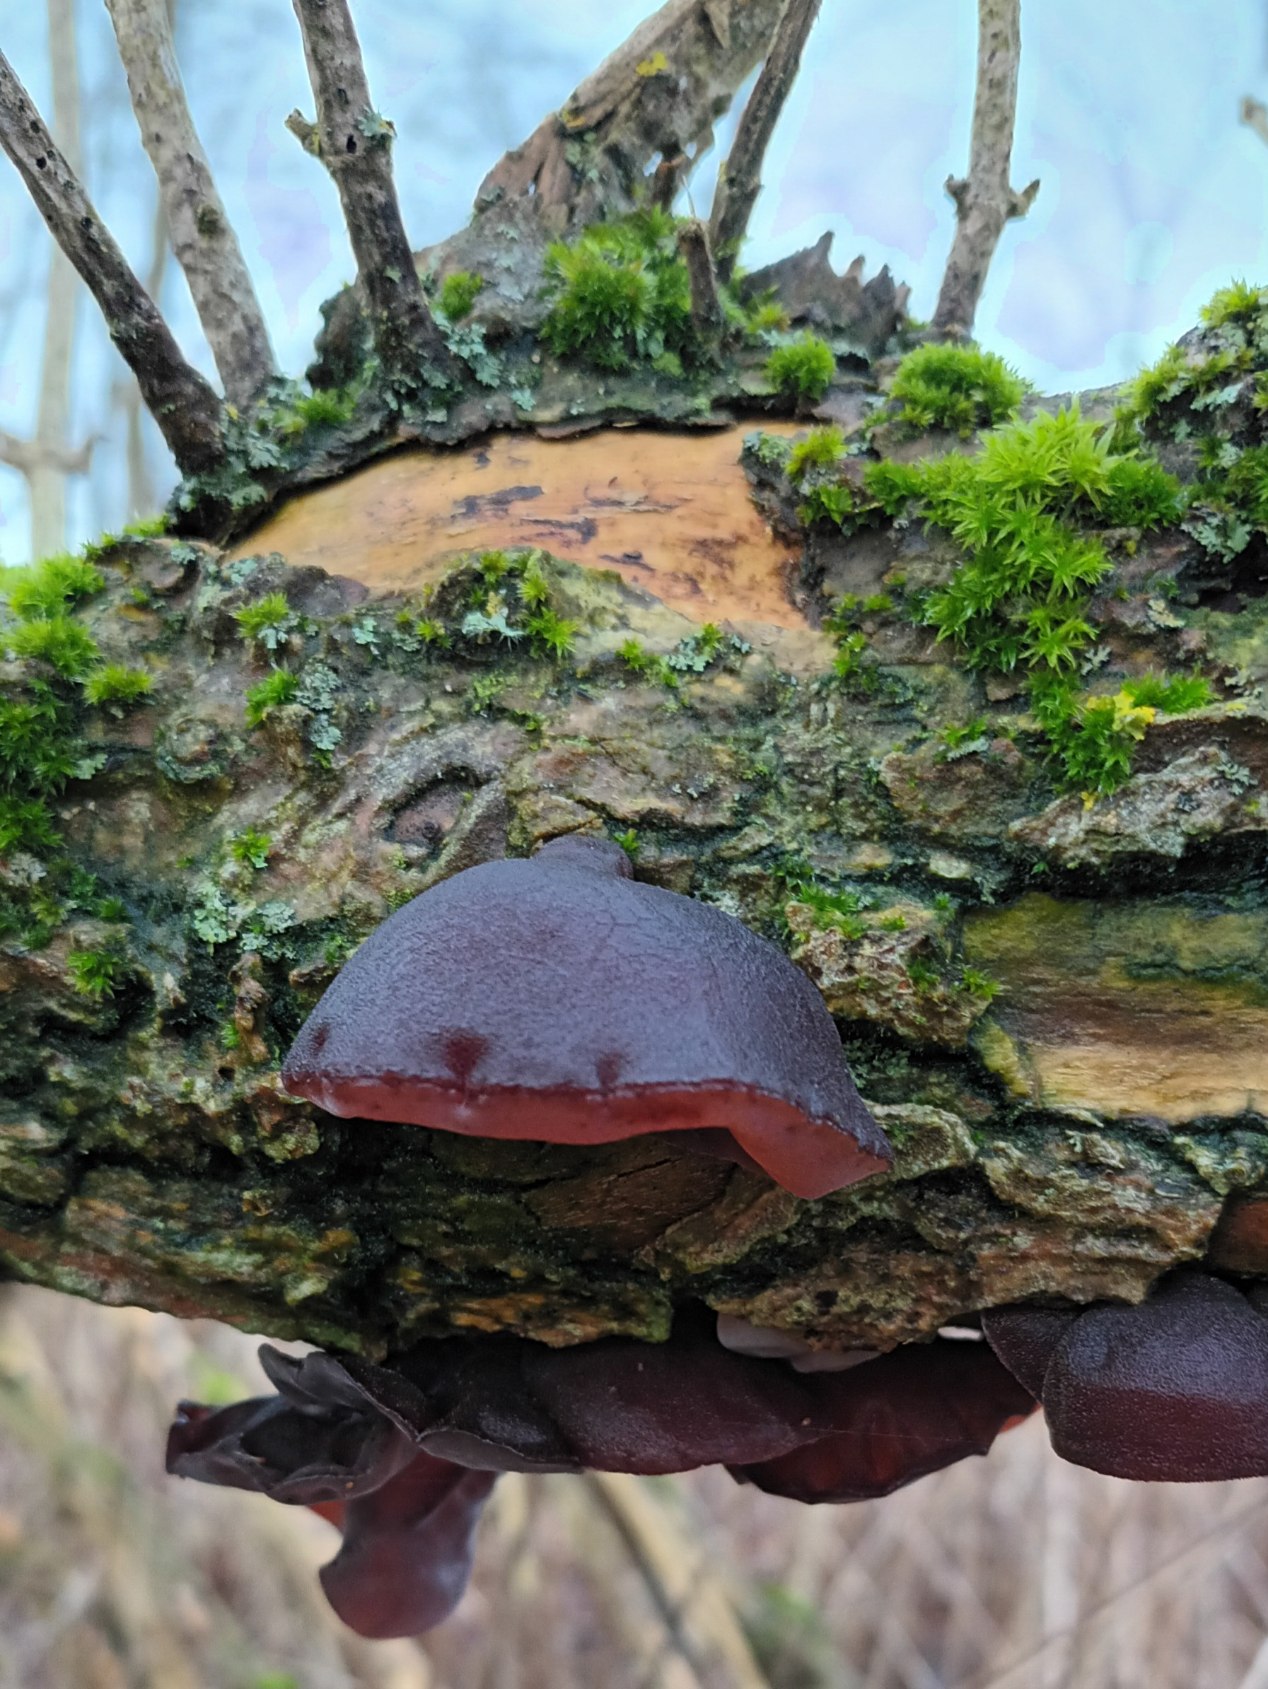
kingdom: Fungi
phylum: Basidiomycota
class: Agaricomycetes
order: Auriculariales
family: Auriculariaceae
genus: Auricularia
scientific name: Auricularia auricula-judae
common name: Almindelig judasøre
